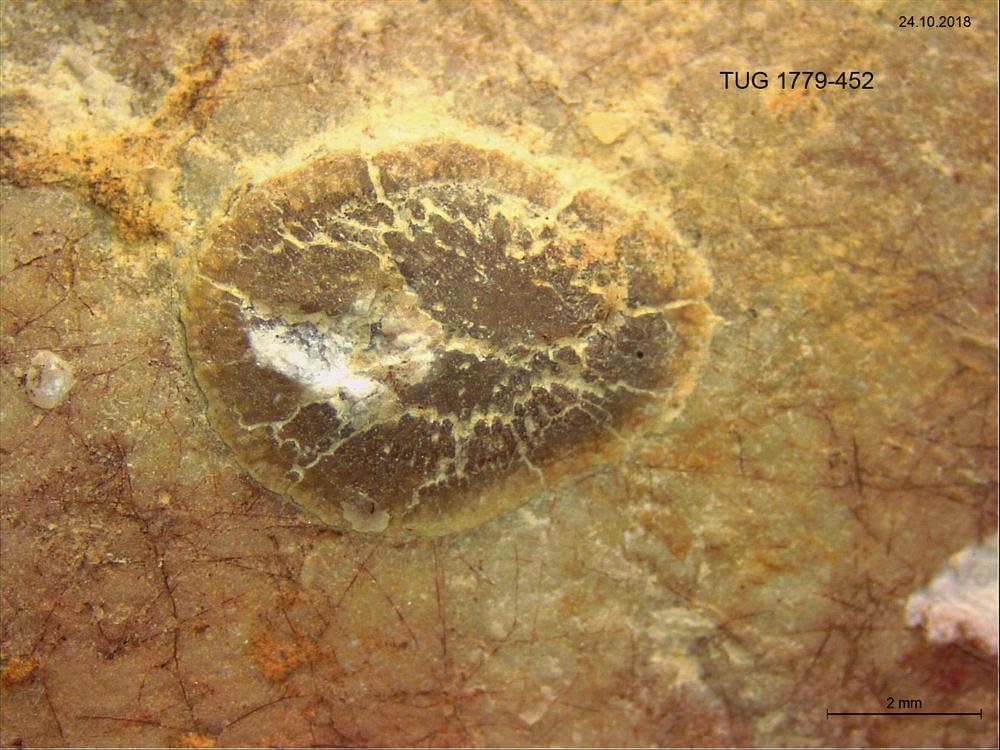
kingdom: Animalia
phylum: Bryozoa
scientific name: Bryozoa
